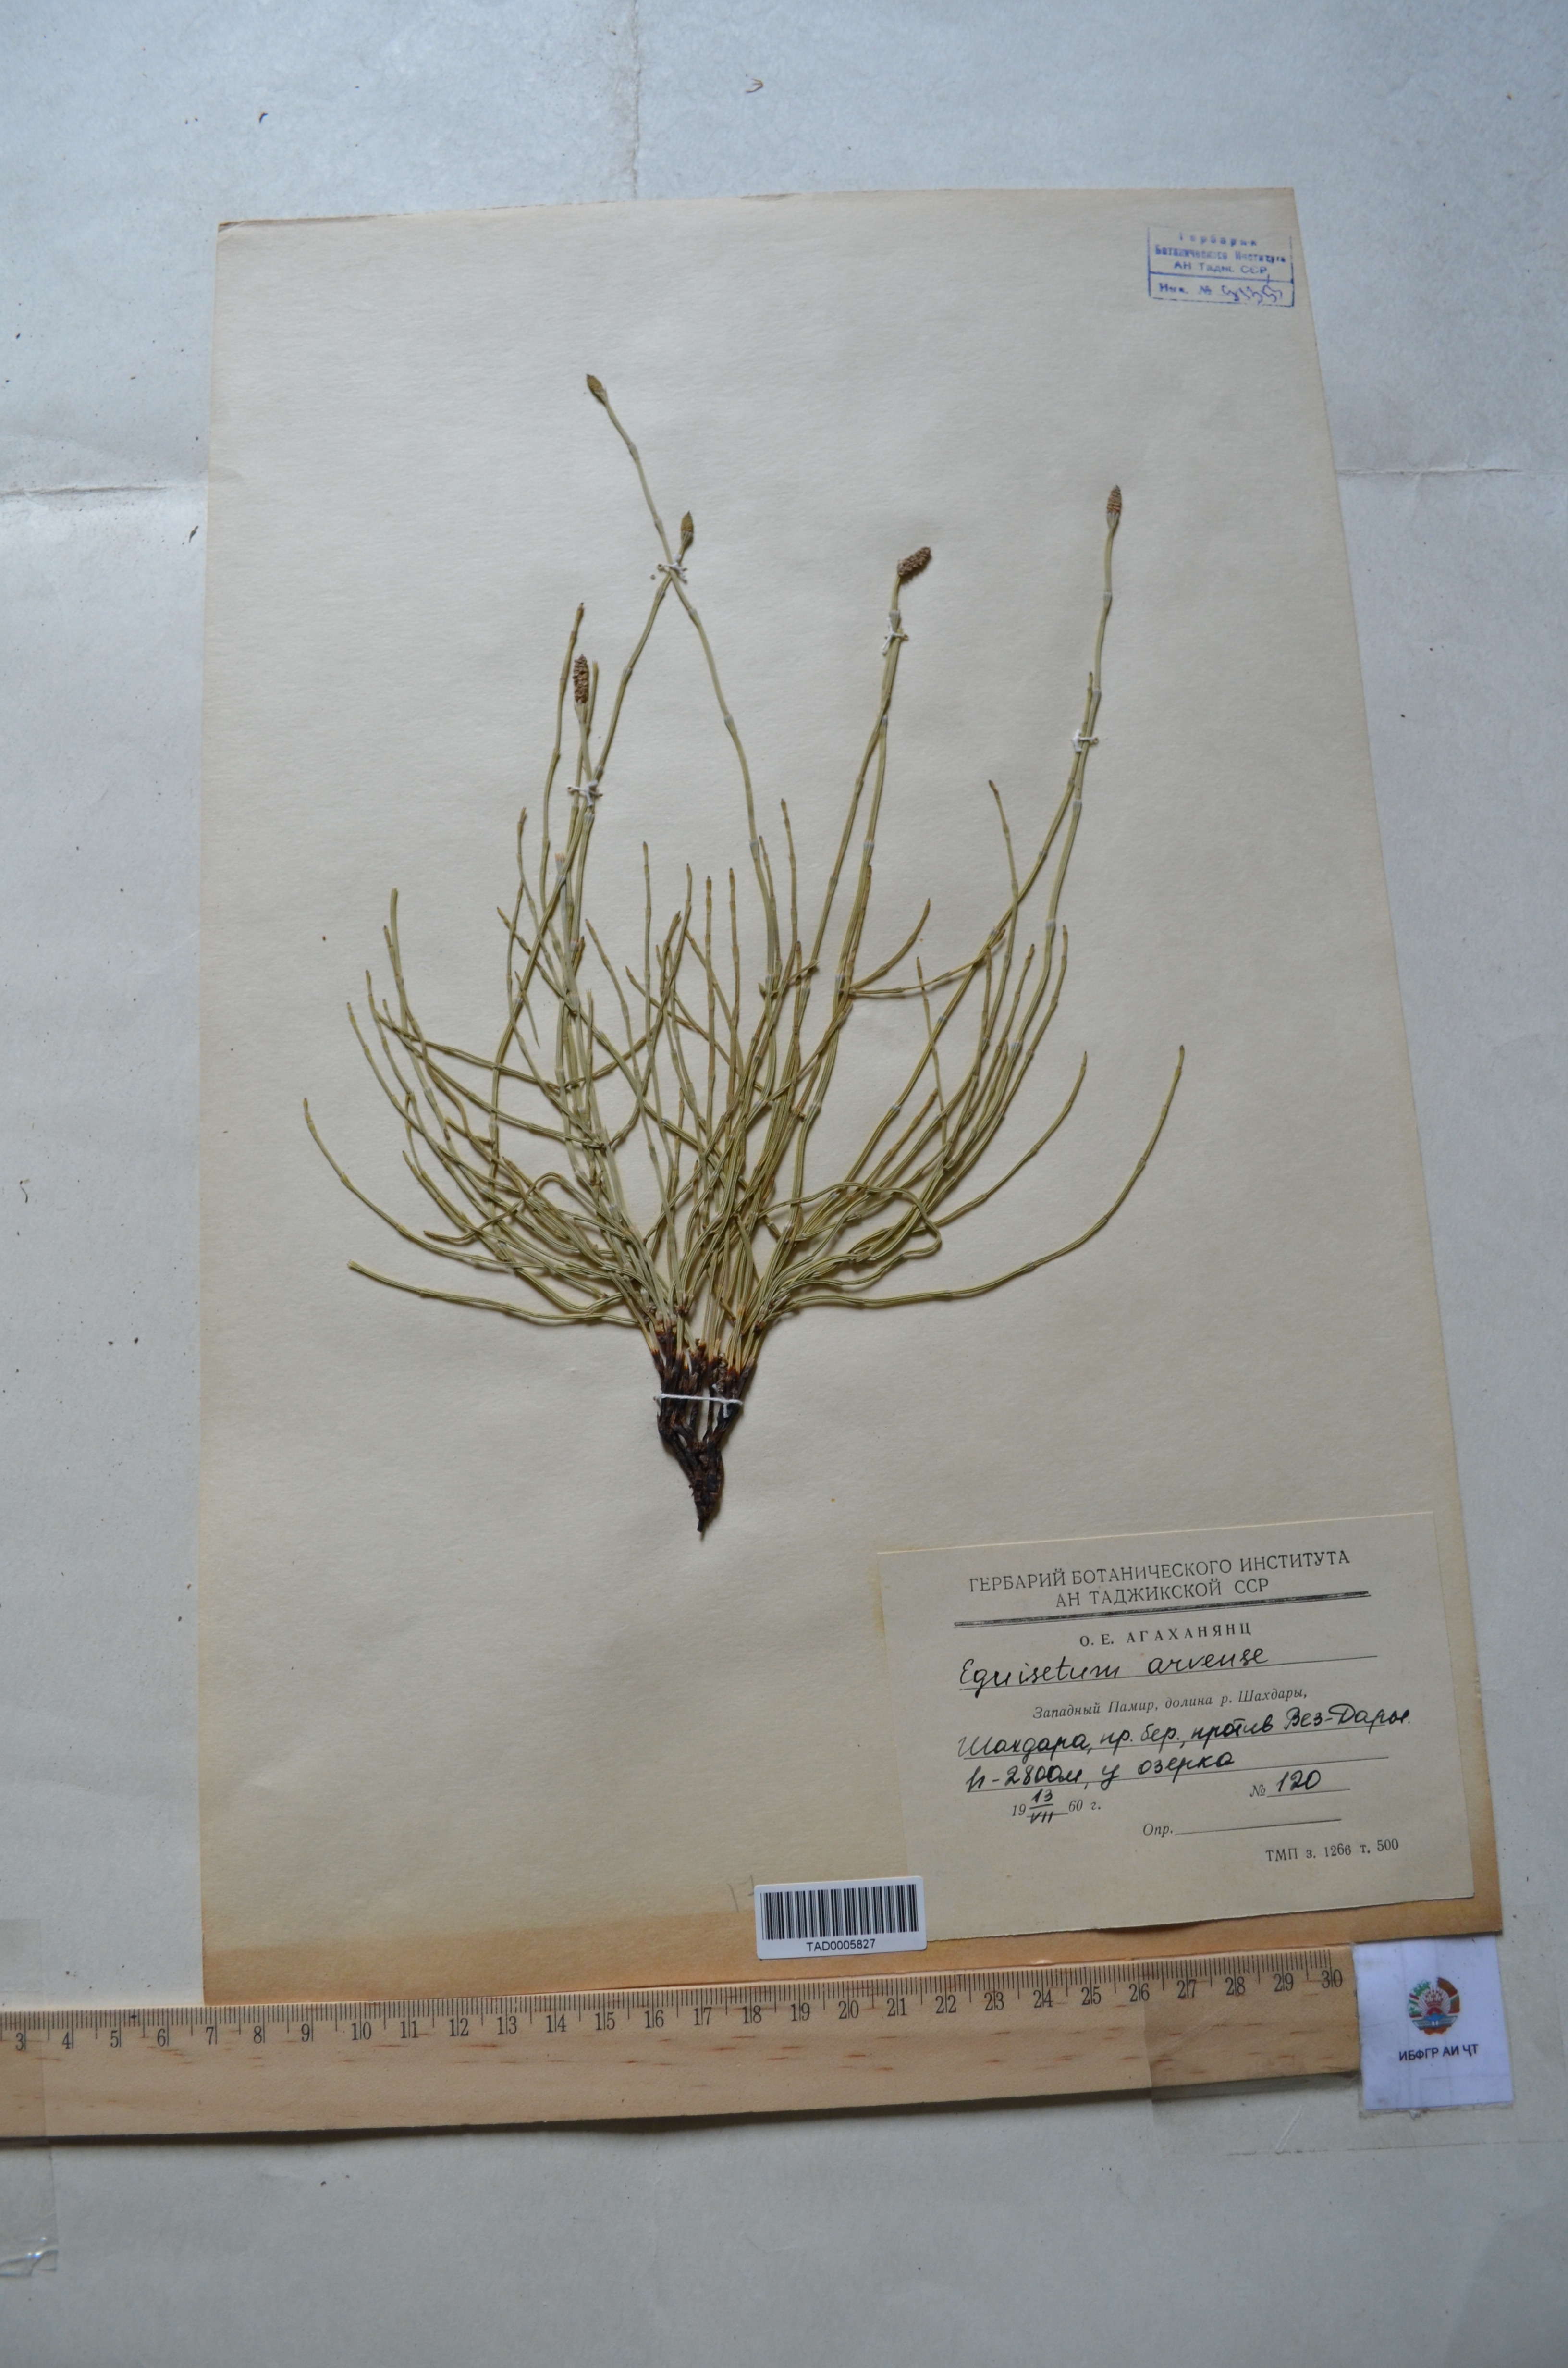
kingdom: Plantae
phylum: Tracheophyta
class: Polypodiopsida
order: Equisetales
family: Equisetaceae
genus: Equisetum
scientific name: Equisetum arvense
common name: Field horsetail
